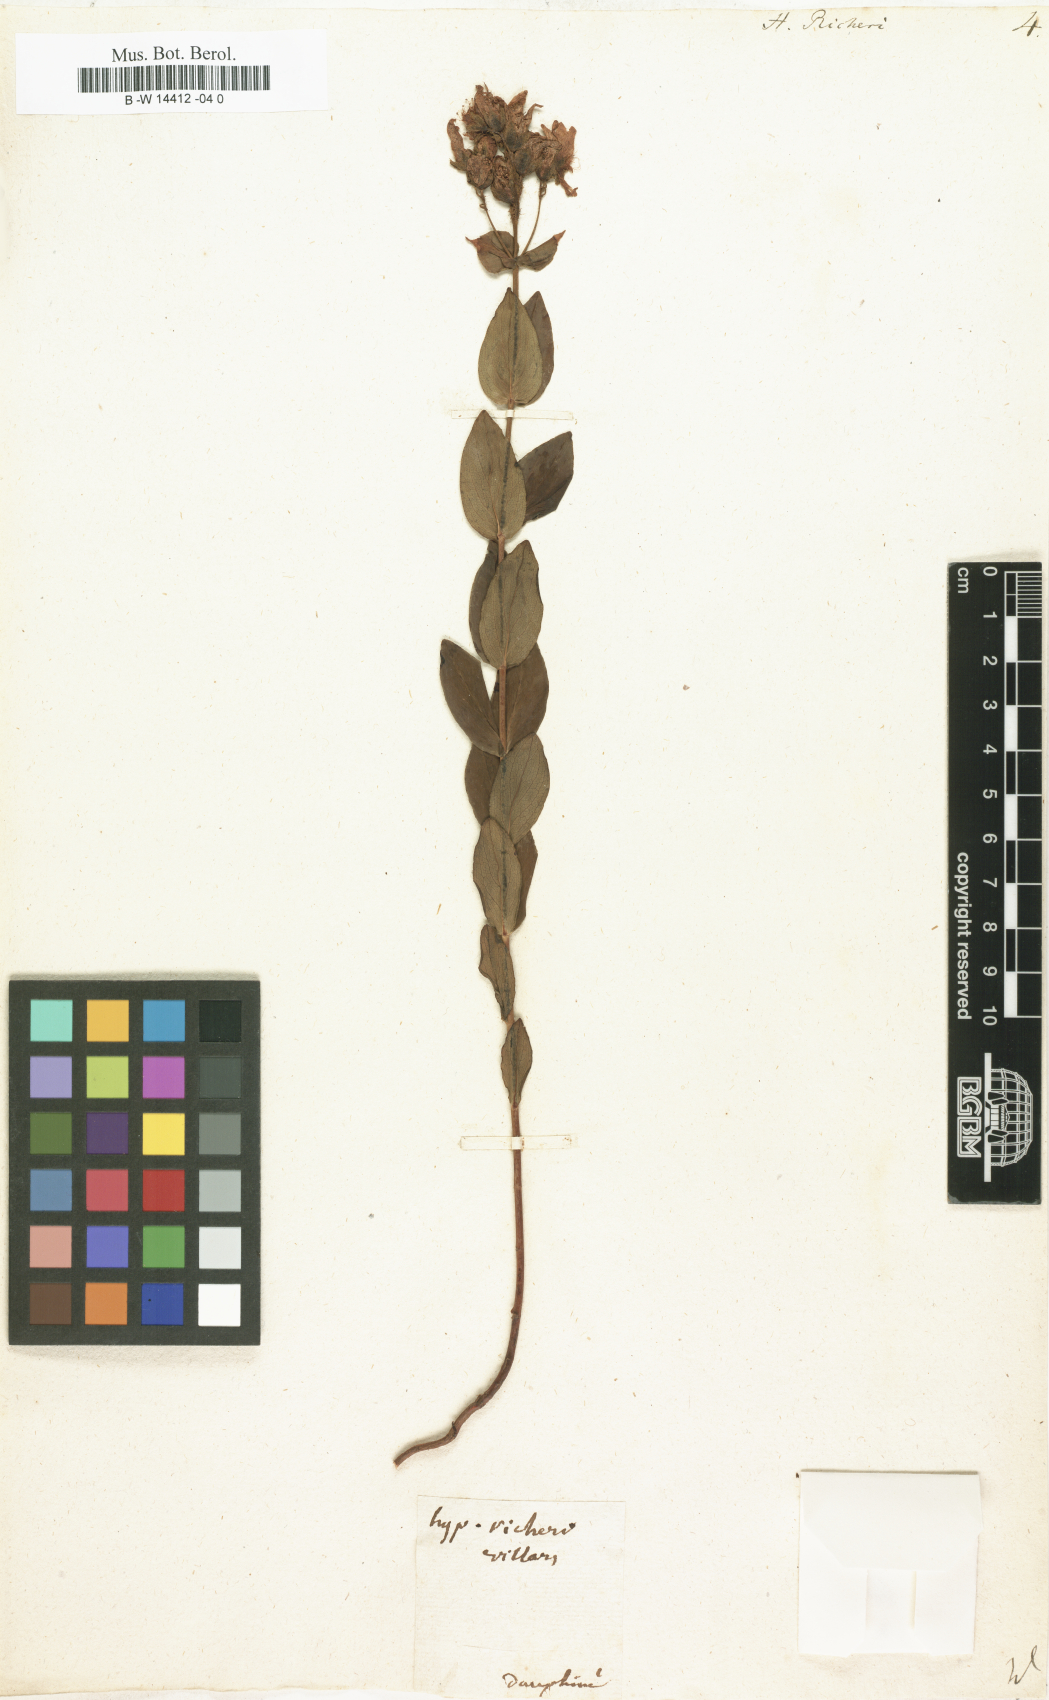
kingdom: Plantae
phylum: Tracheophyta
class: Magnoliopsida
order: Malpighiales
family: Hypericaceae
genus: Hypericum
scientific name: Hypericum richeri
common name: Alpine st john's-wort
